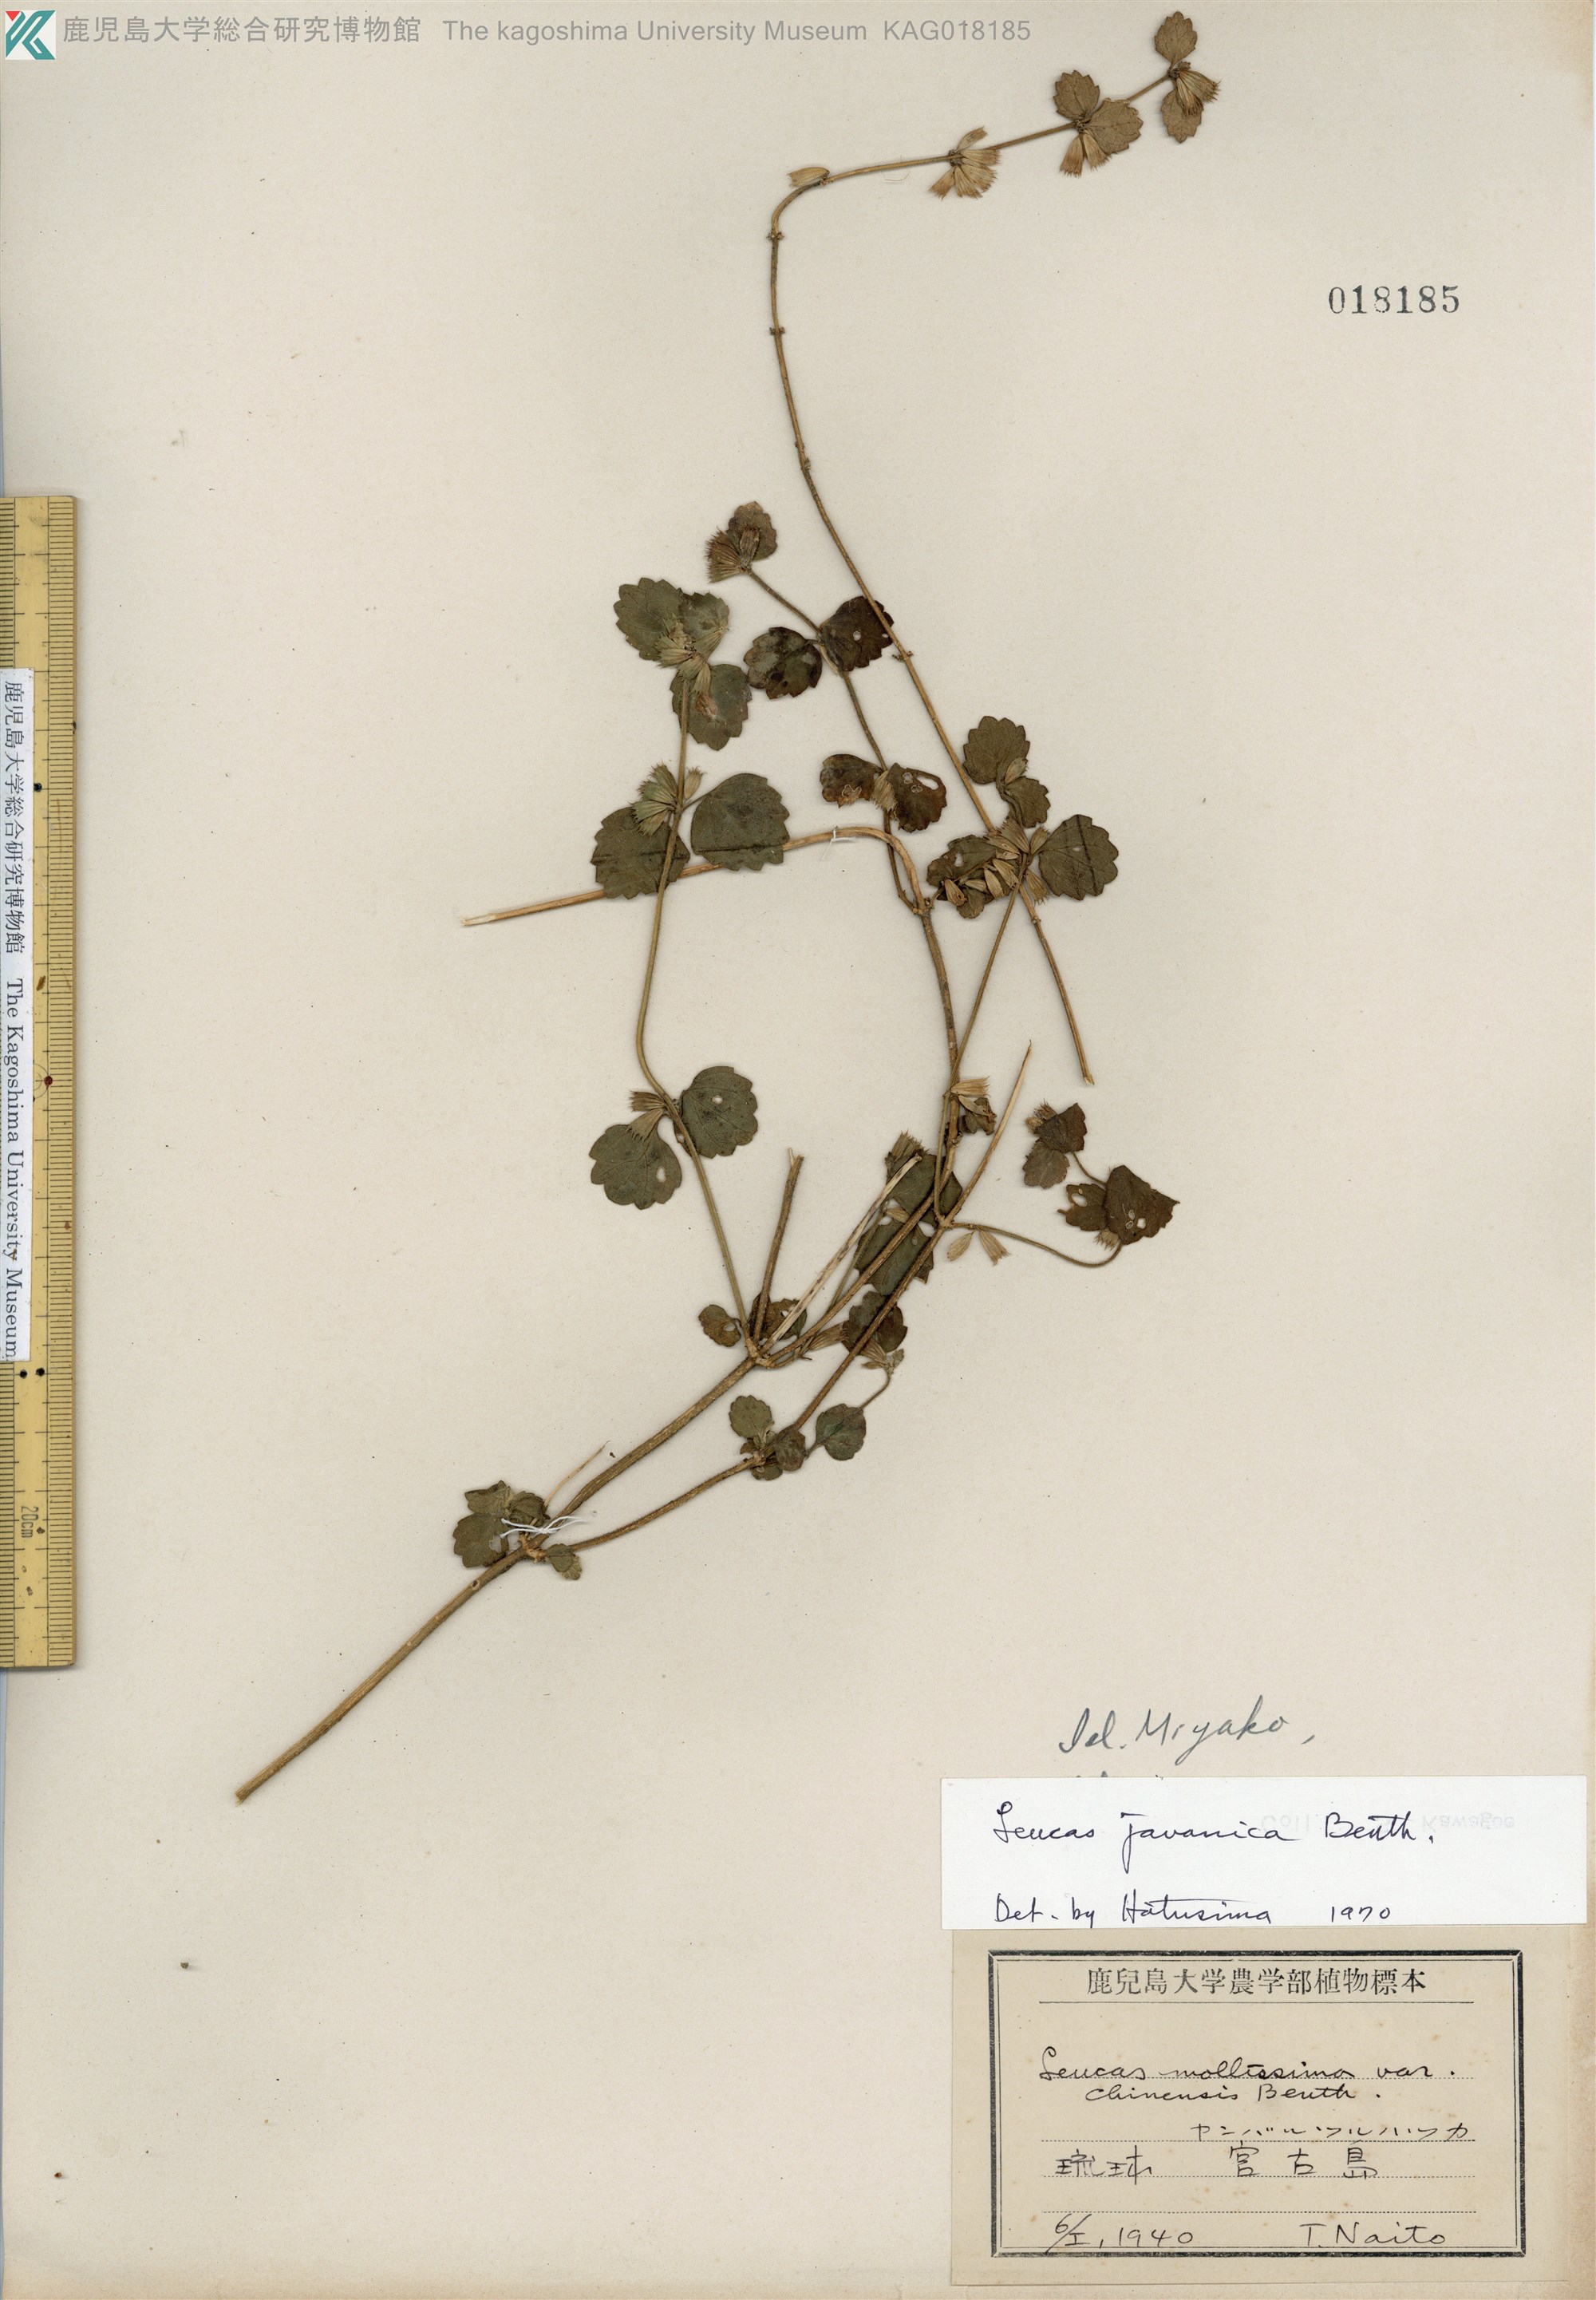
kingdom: Plantae
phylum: Tracheophyta
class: Magnoliopsida
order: Lamiales
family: Lamiaceae
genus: Leucas
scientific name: Leucas chinensis
